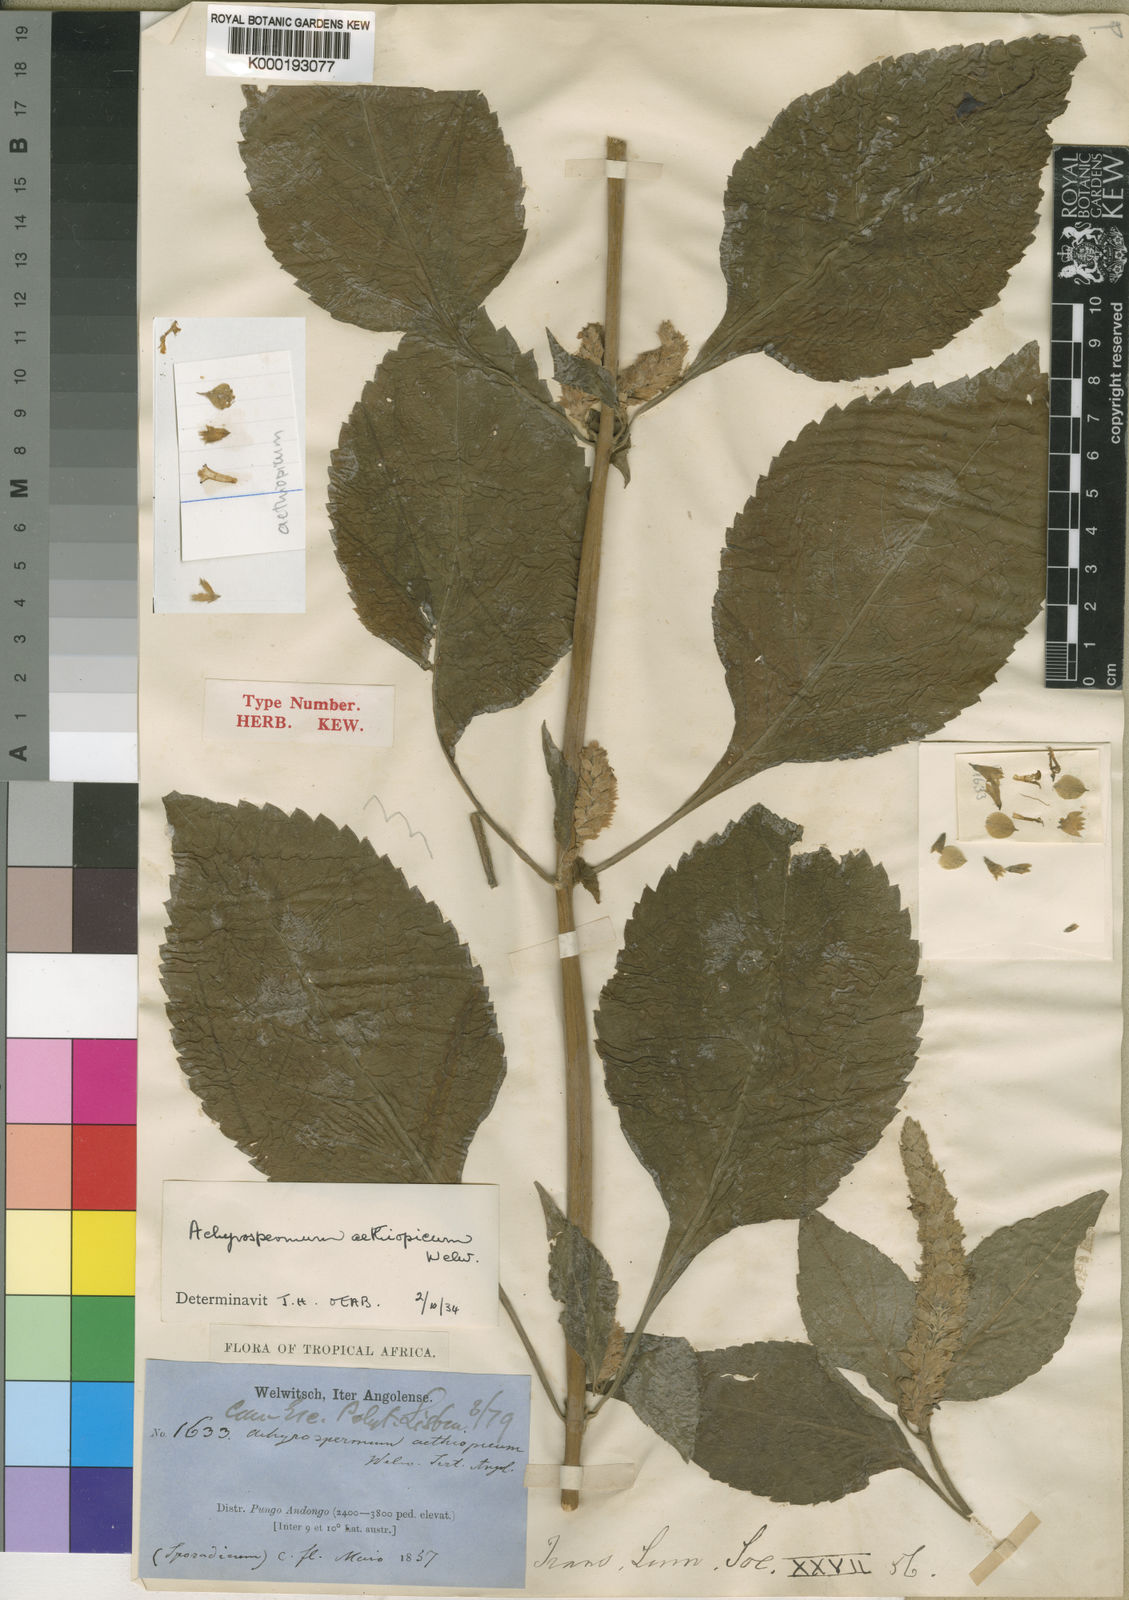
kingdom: Plantae
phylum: Tracheophyta
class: Magnoliopsida
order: Lamiales
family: Lamiaceae
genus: Achyrospermum
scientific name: Achyrospermum aethiopicum
